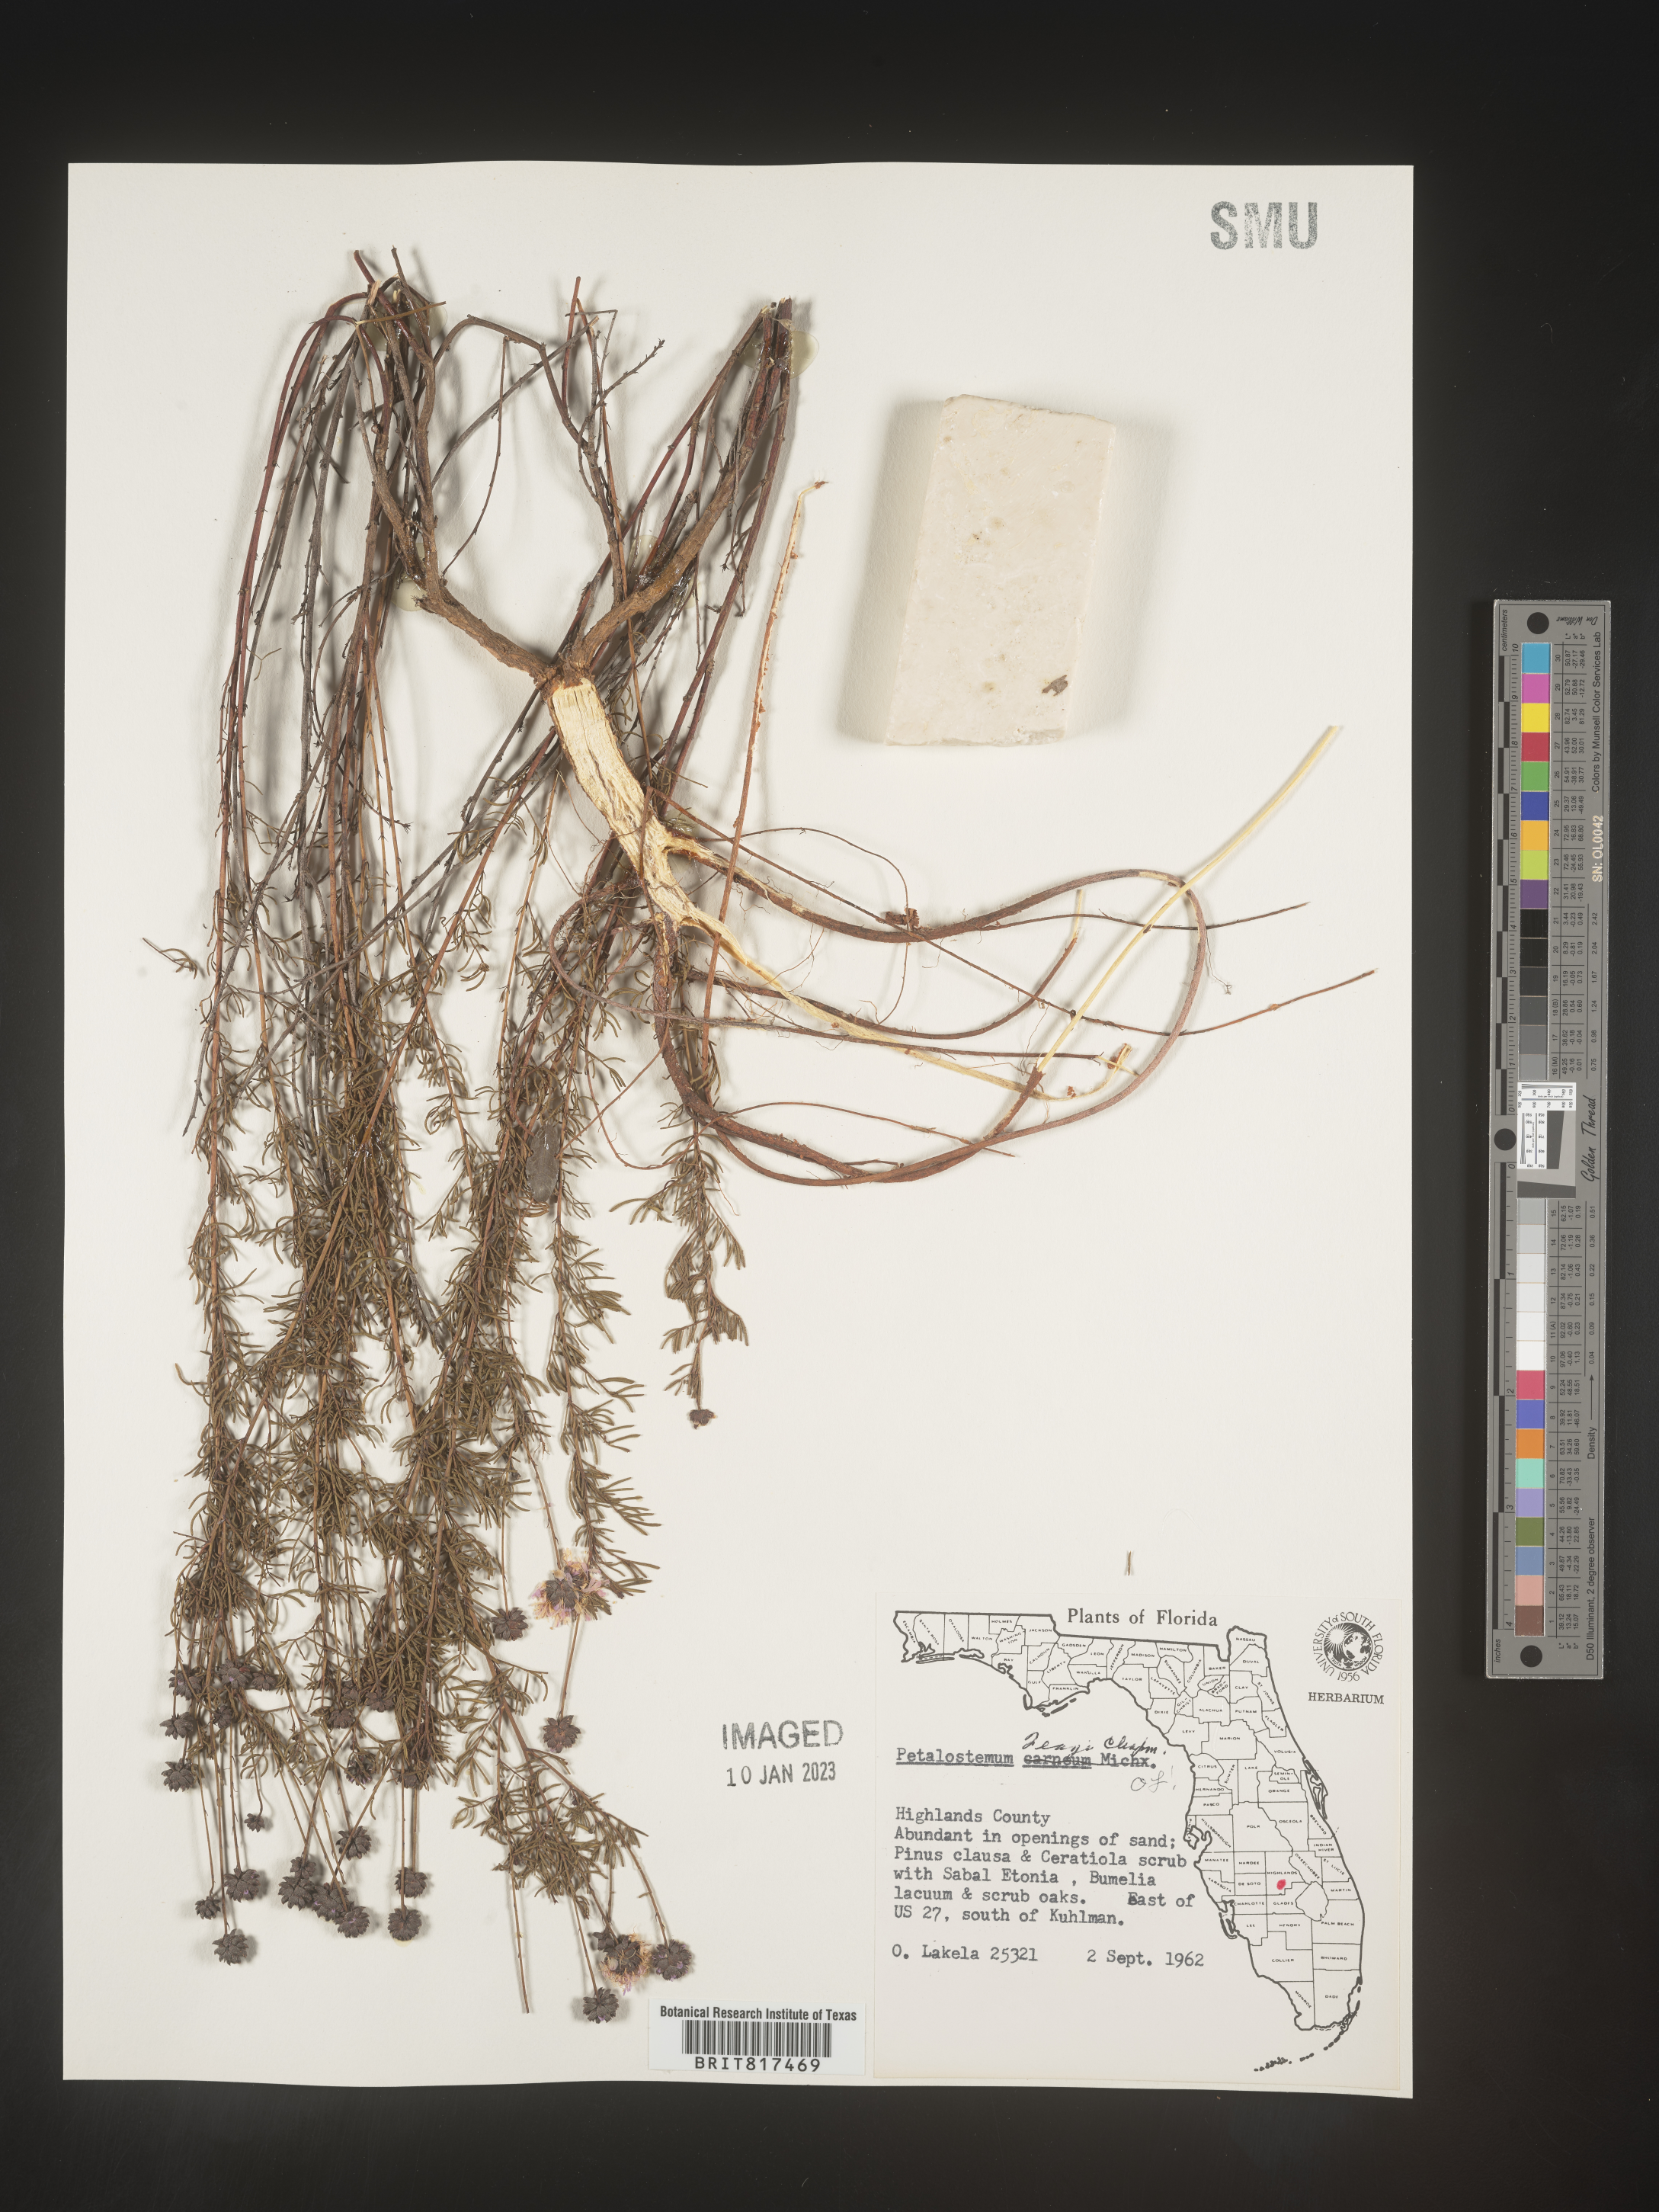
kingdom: Plantae
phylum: Tracheophyta
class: Magnoliopsida
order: Fabales
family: Fabaceae
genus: Dalea
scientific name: Dalea feayi
